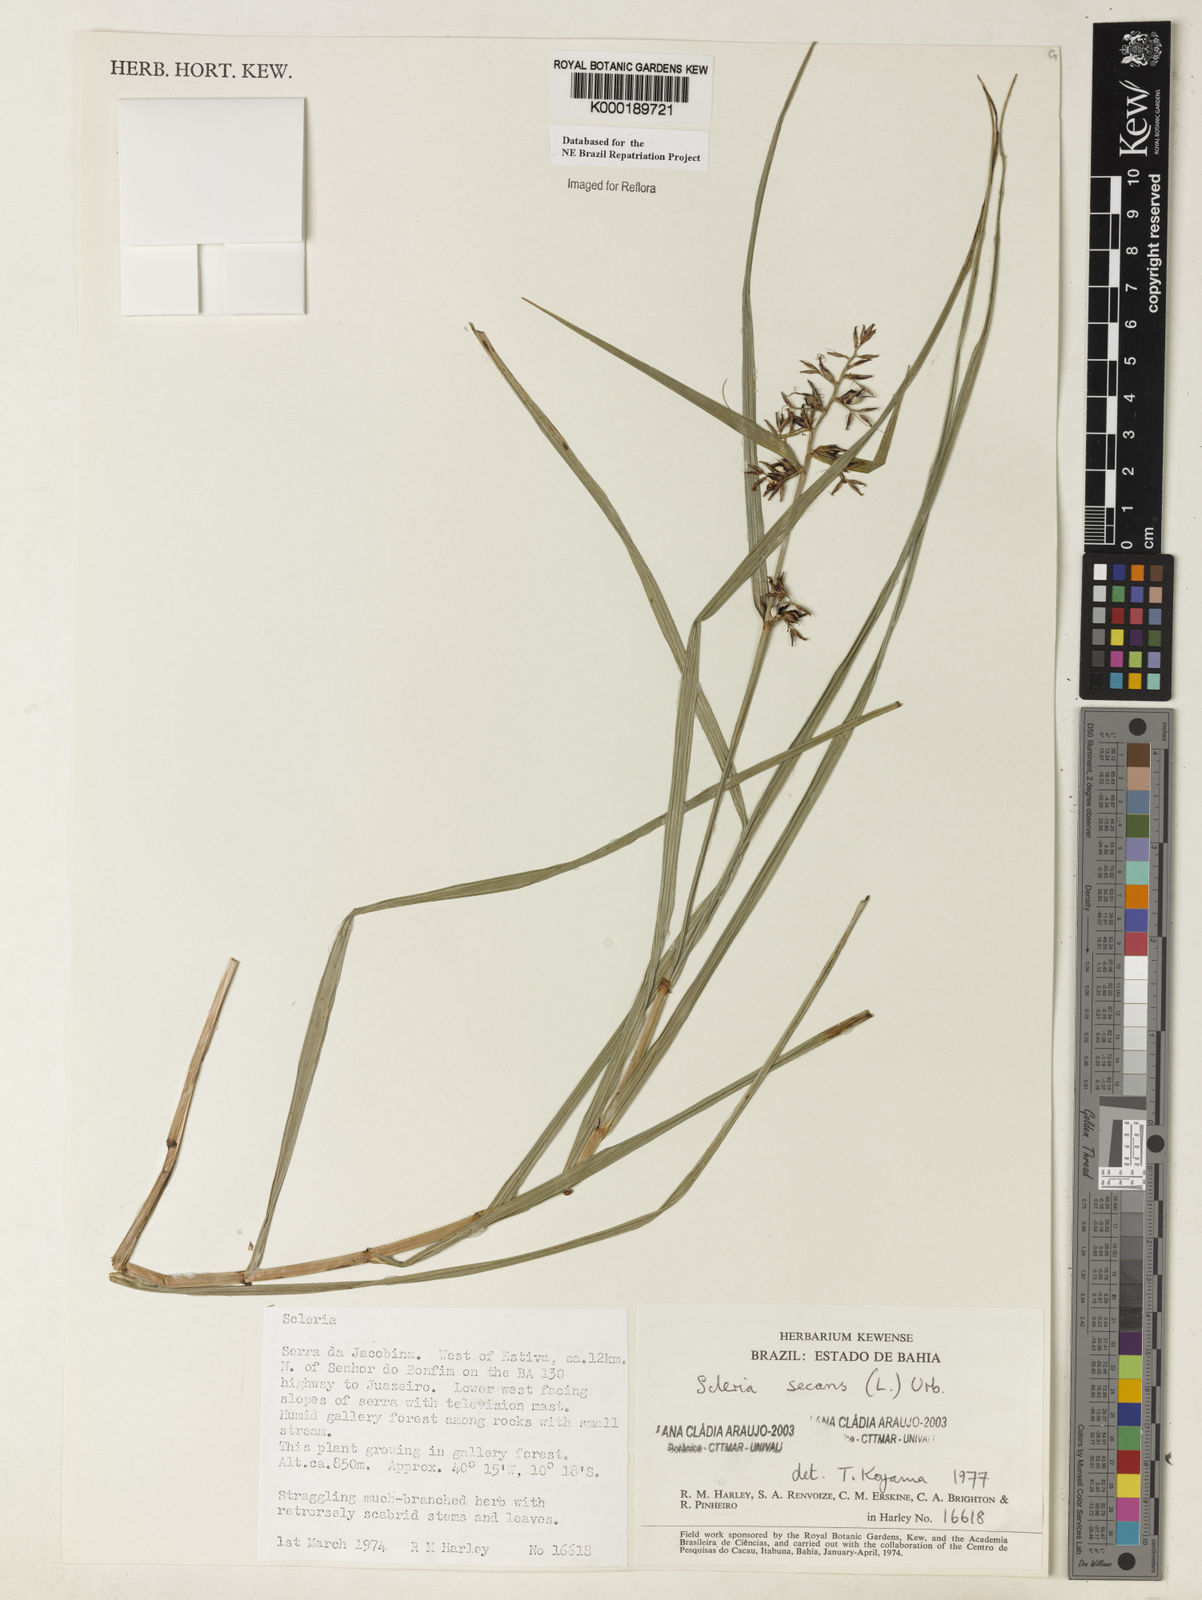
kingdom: Plantae
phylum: Tracheophyta
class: Liliopsida
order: Poales
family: Cyperaceae
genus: Scleria
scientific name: Scleria secans
